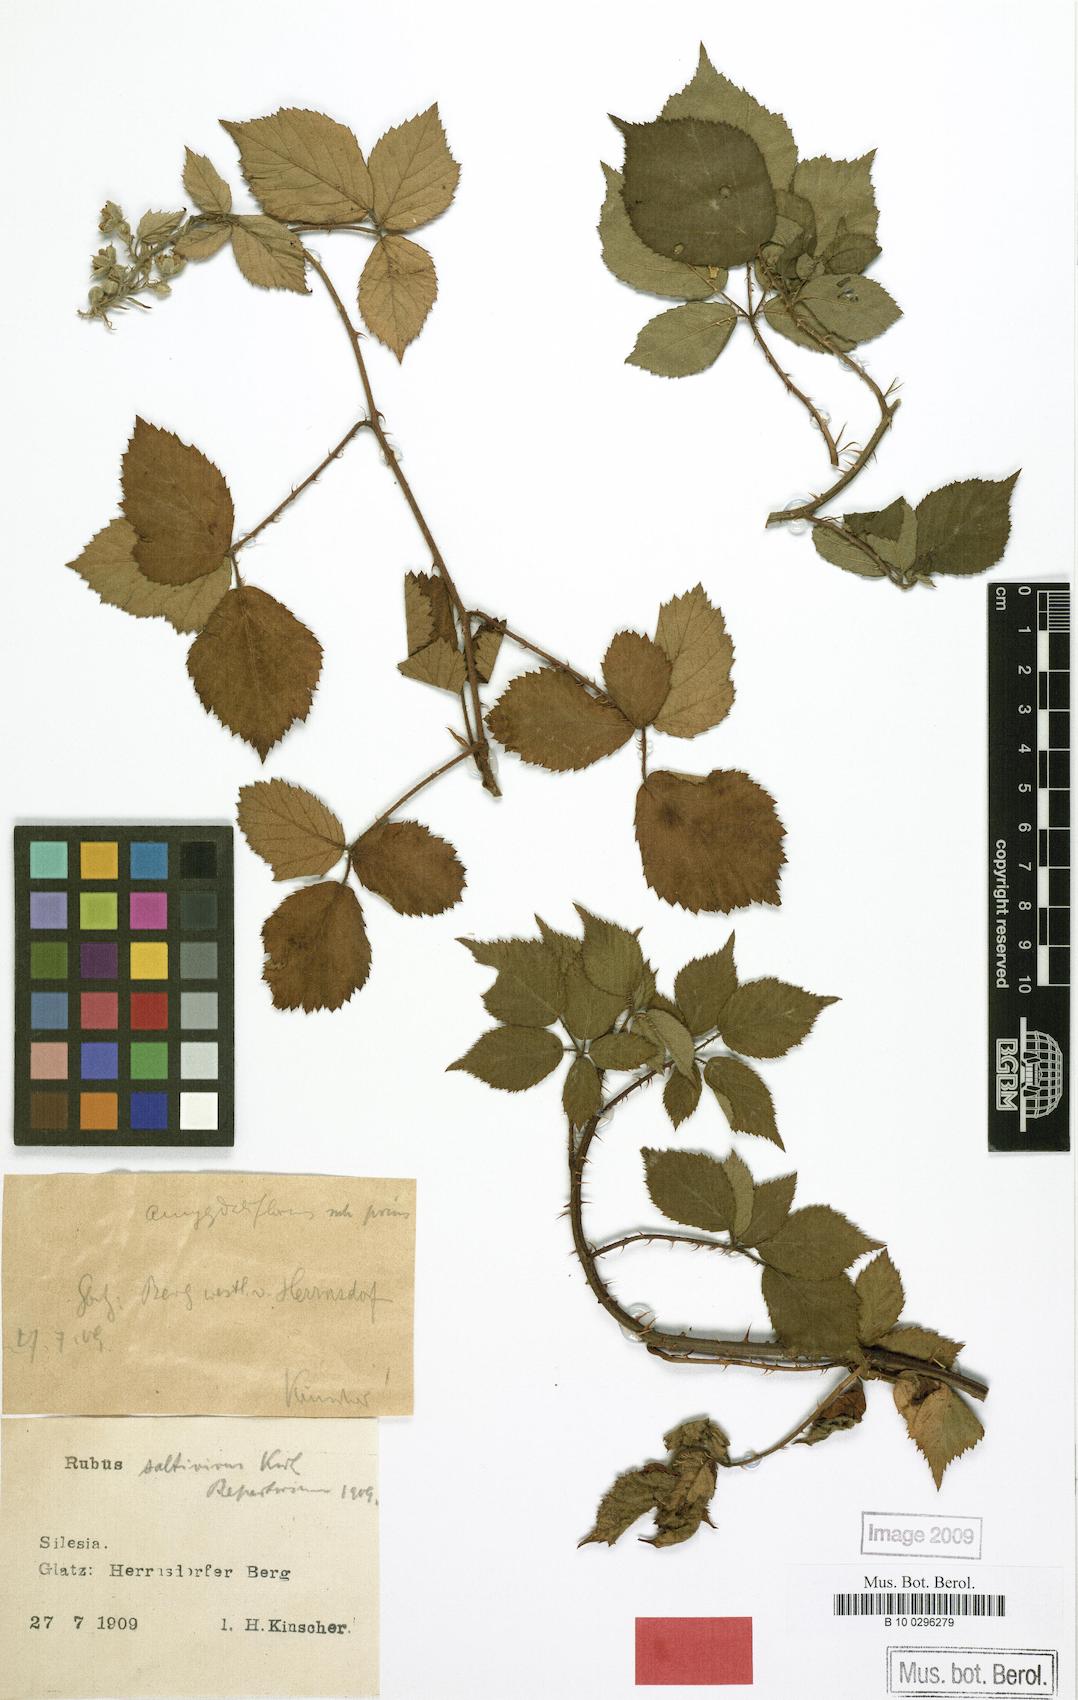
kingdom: Plantae
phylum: Tracheophyta
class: Magnoliopsida
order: Rosales
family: Rosaceae
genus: Rubus
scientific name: Rubus saltivivus
